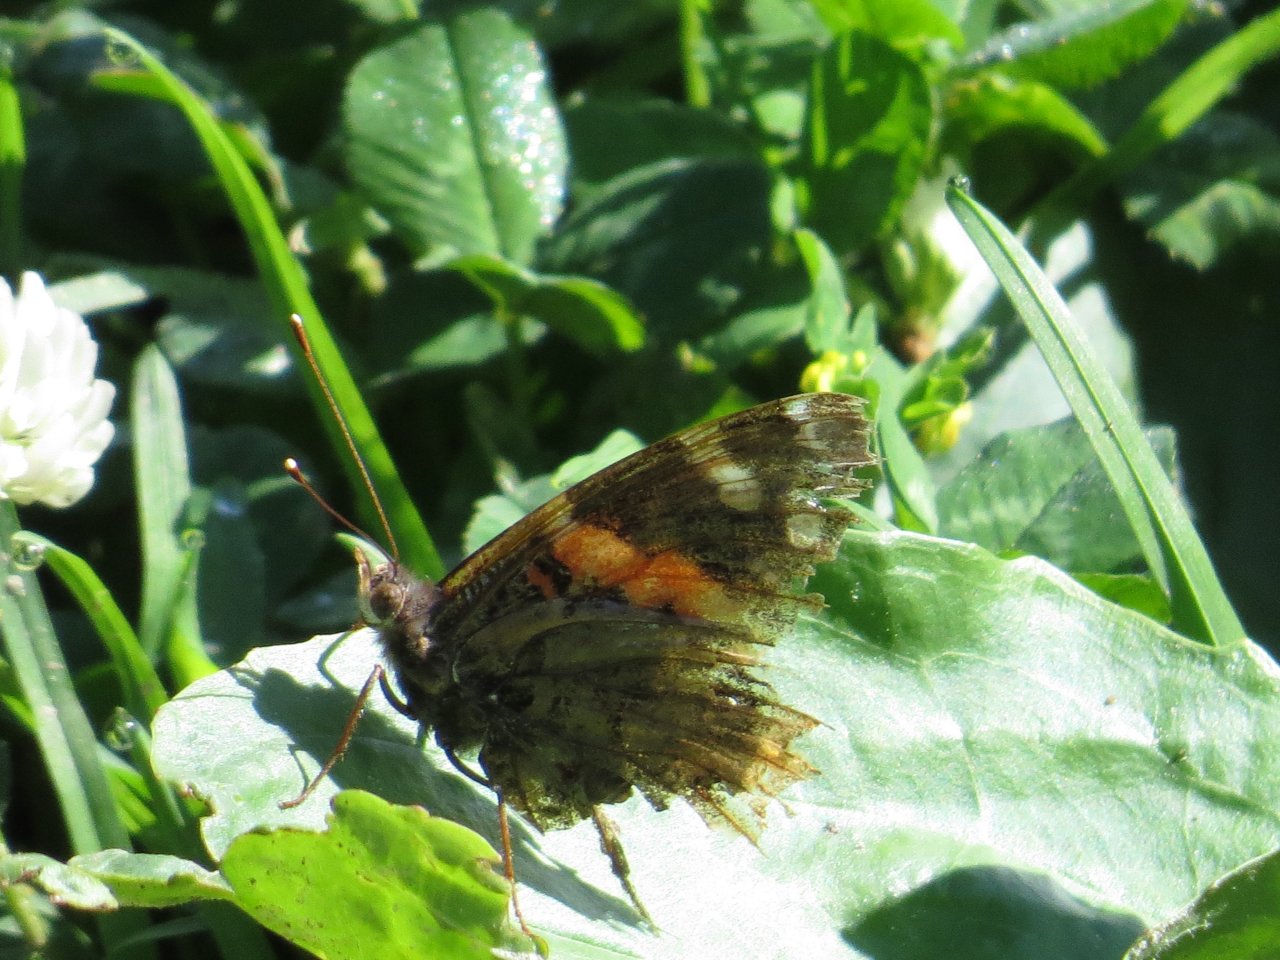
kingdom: Animalia
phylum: Arthropoda
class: Insecta
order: Lepidoptera
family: Nymphalidae
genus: Vanessa
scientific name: Vanessa atalanta
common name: Red Admiral
